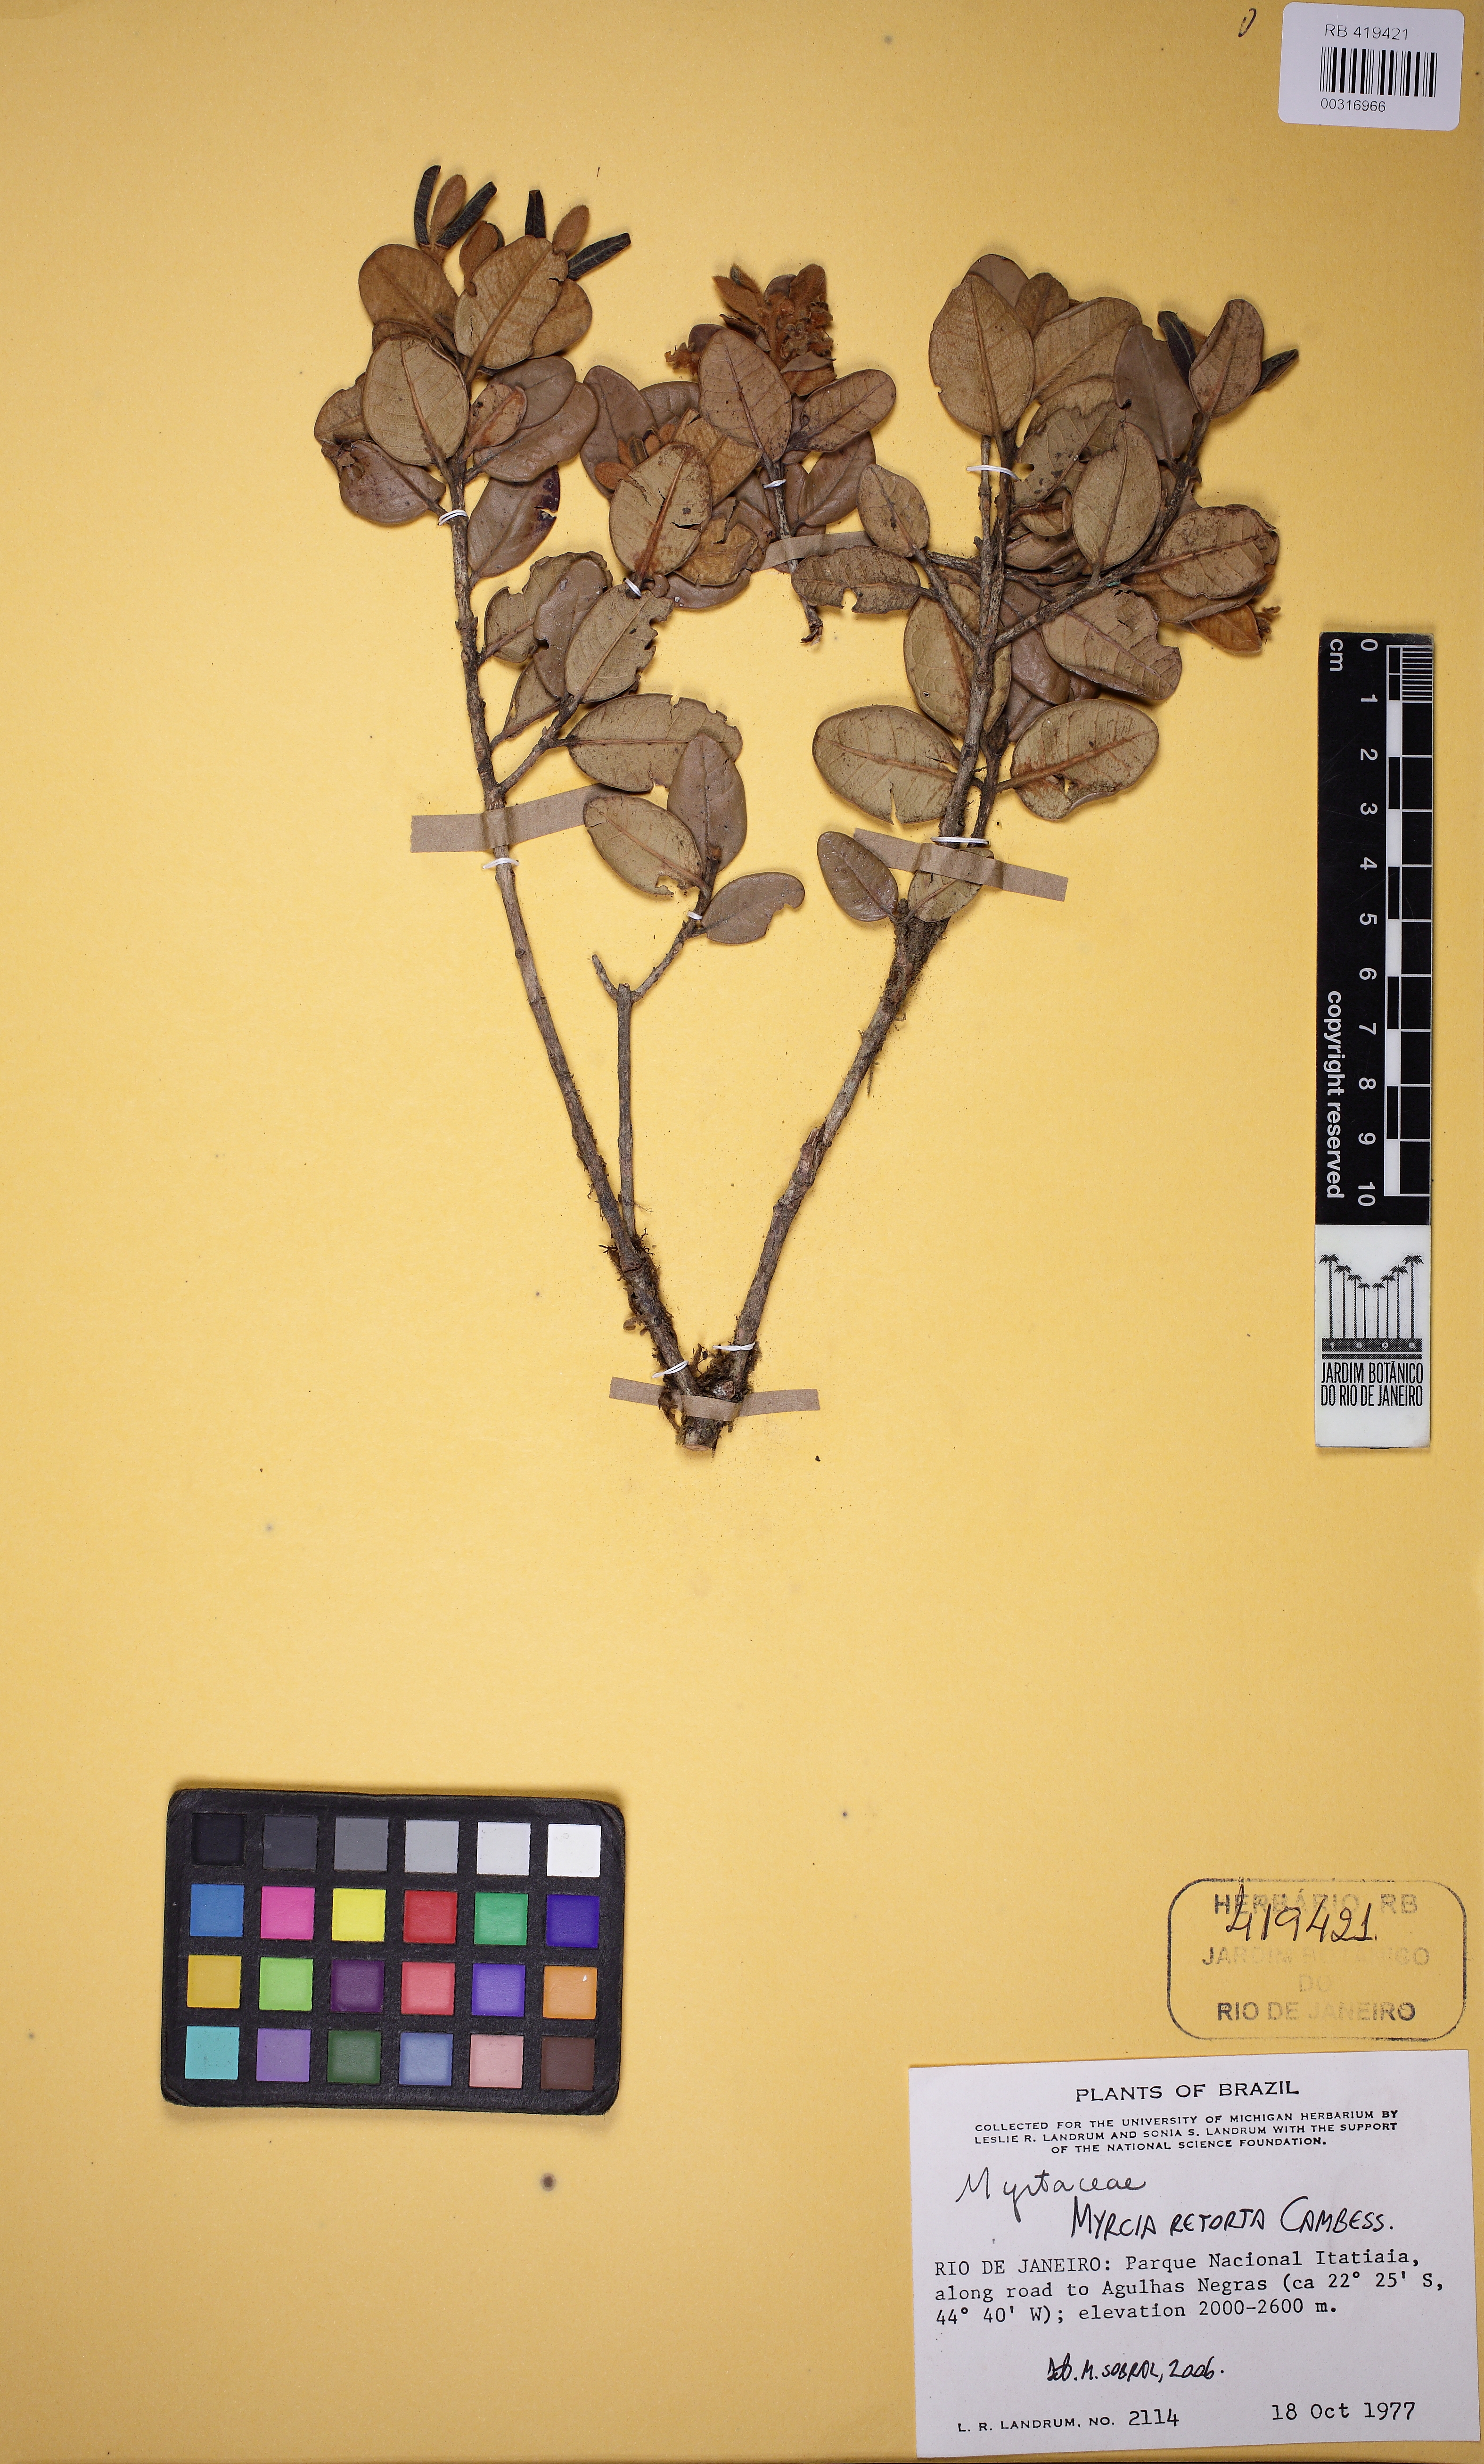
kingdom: Plantae
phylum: Tracheophyta
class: Magnoliopsida
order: Myrtales
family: Myrtaceae
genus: Myrcia
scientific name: Myrcia retorta
